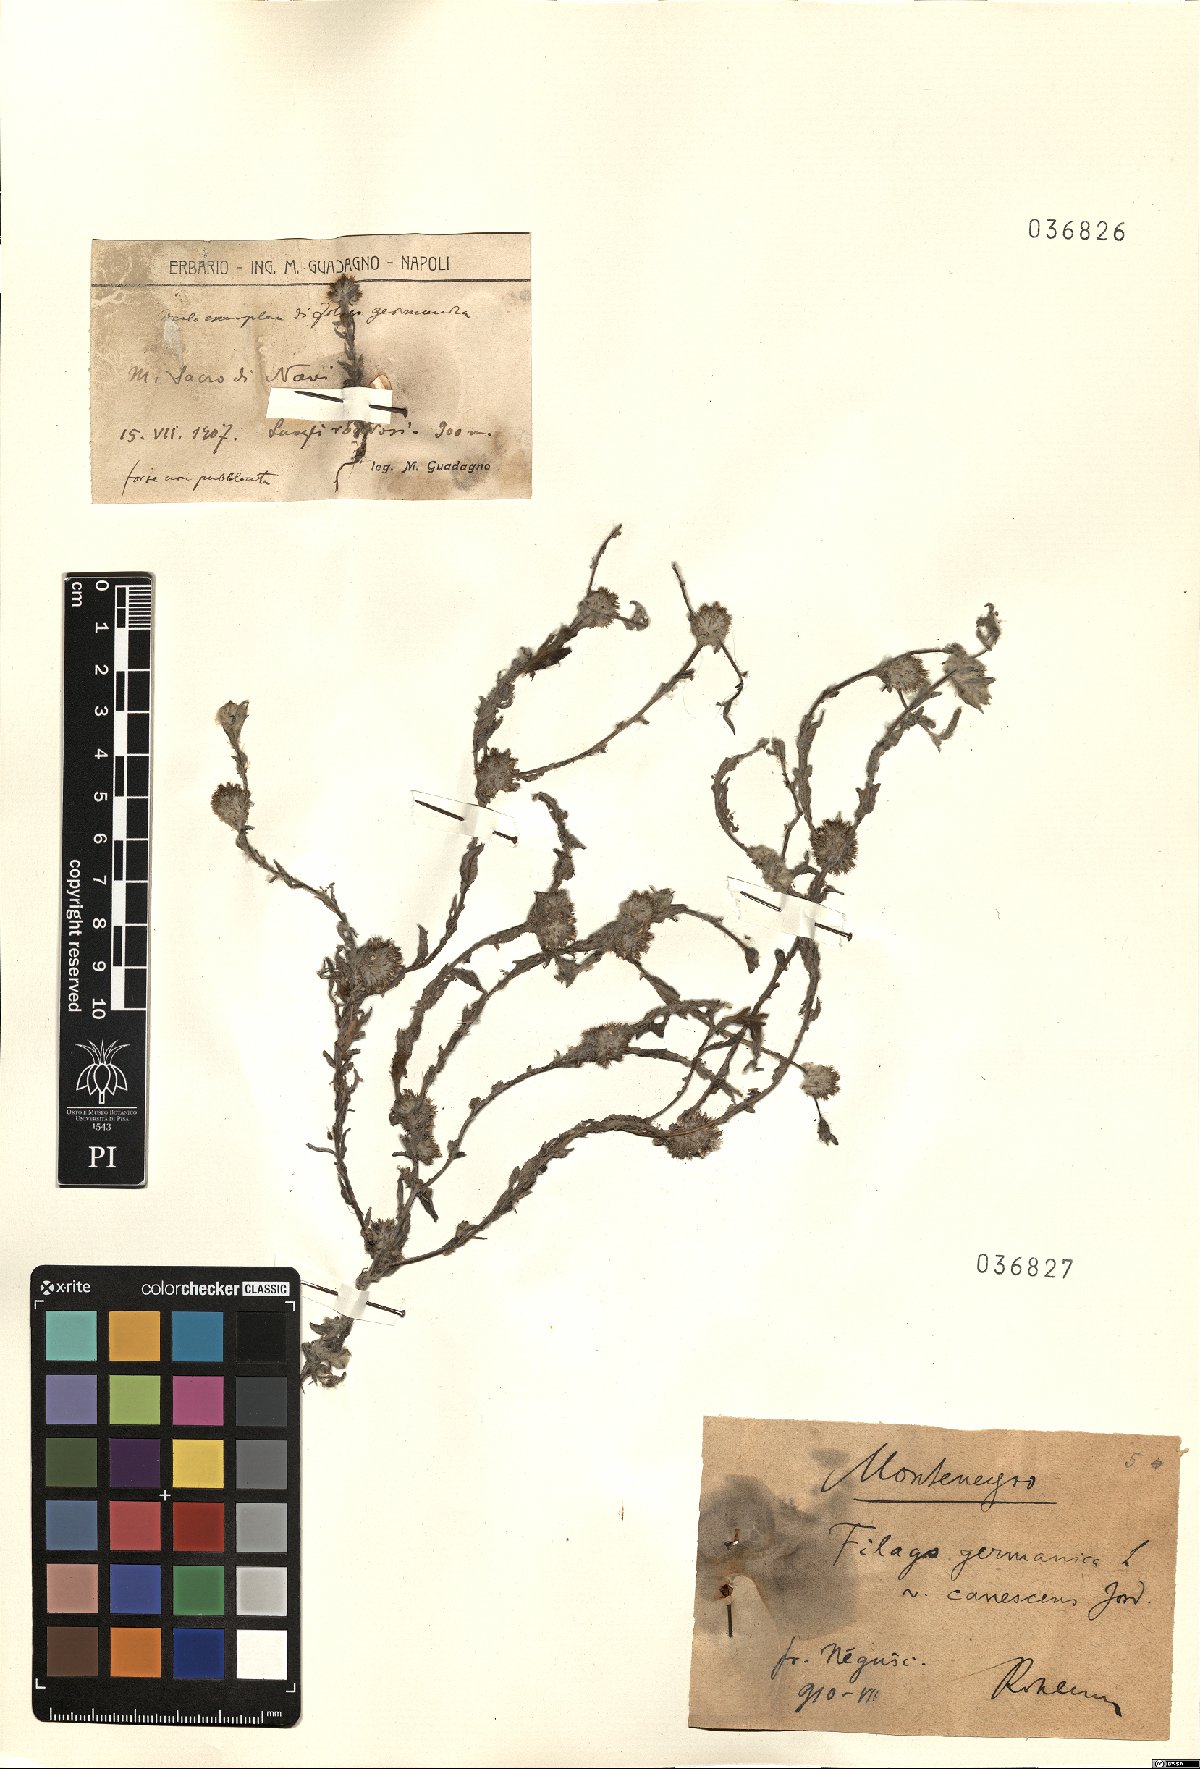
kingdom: Plantae
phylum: Tracheophyta
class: Magnoliopsida
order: Asterales
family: Asteraceae
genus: Filago
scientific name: Filago germanica
